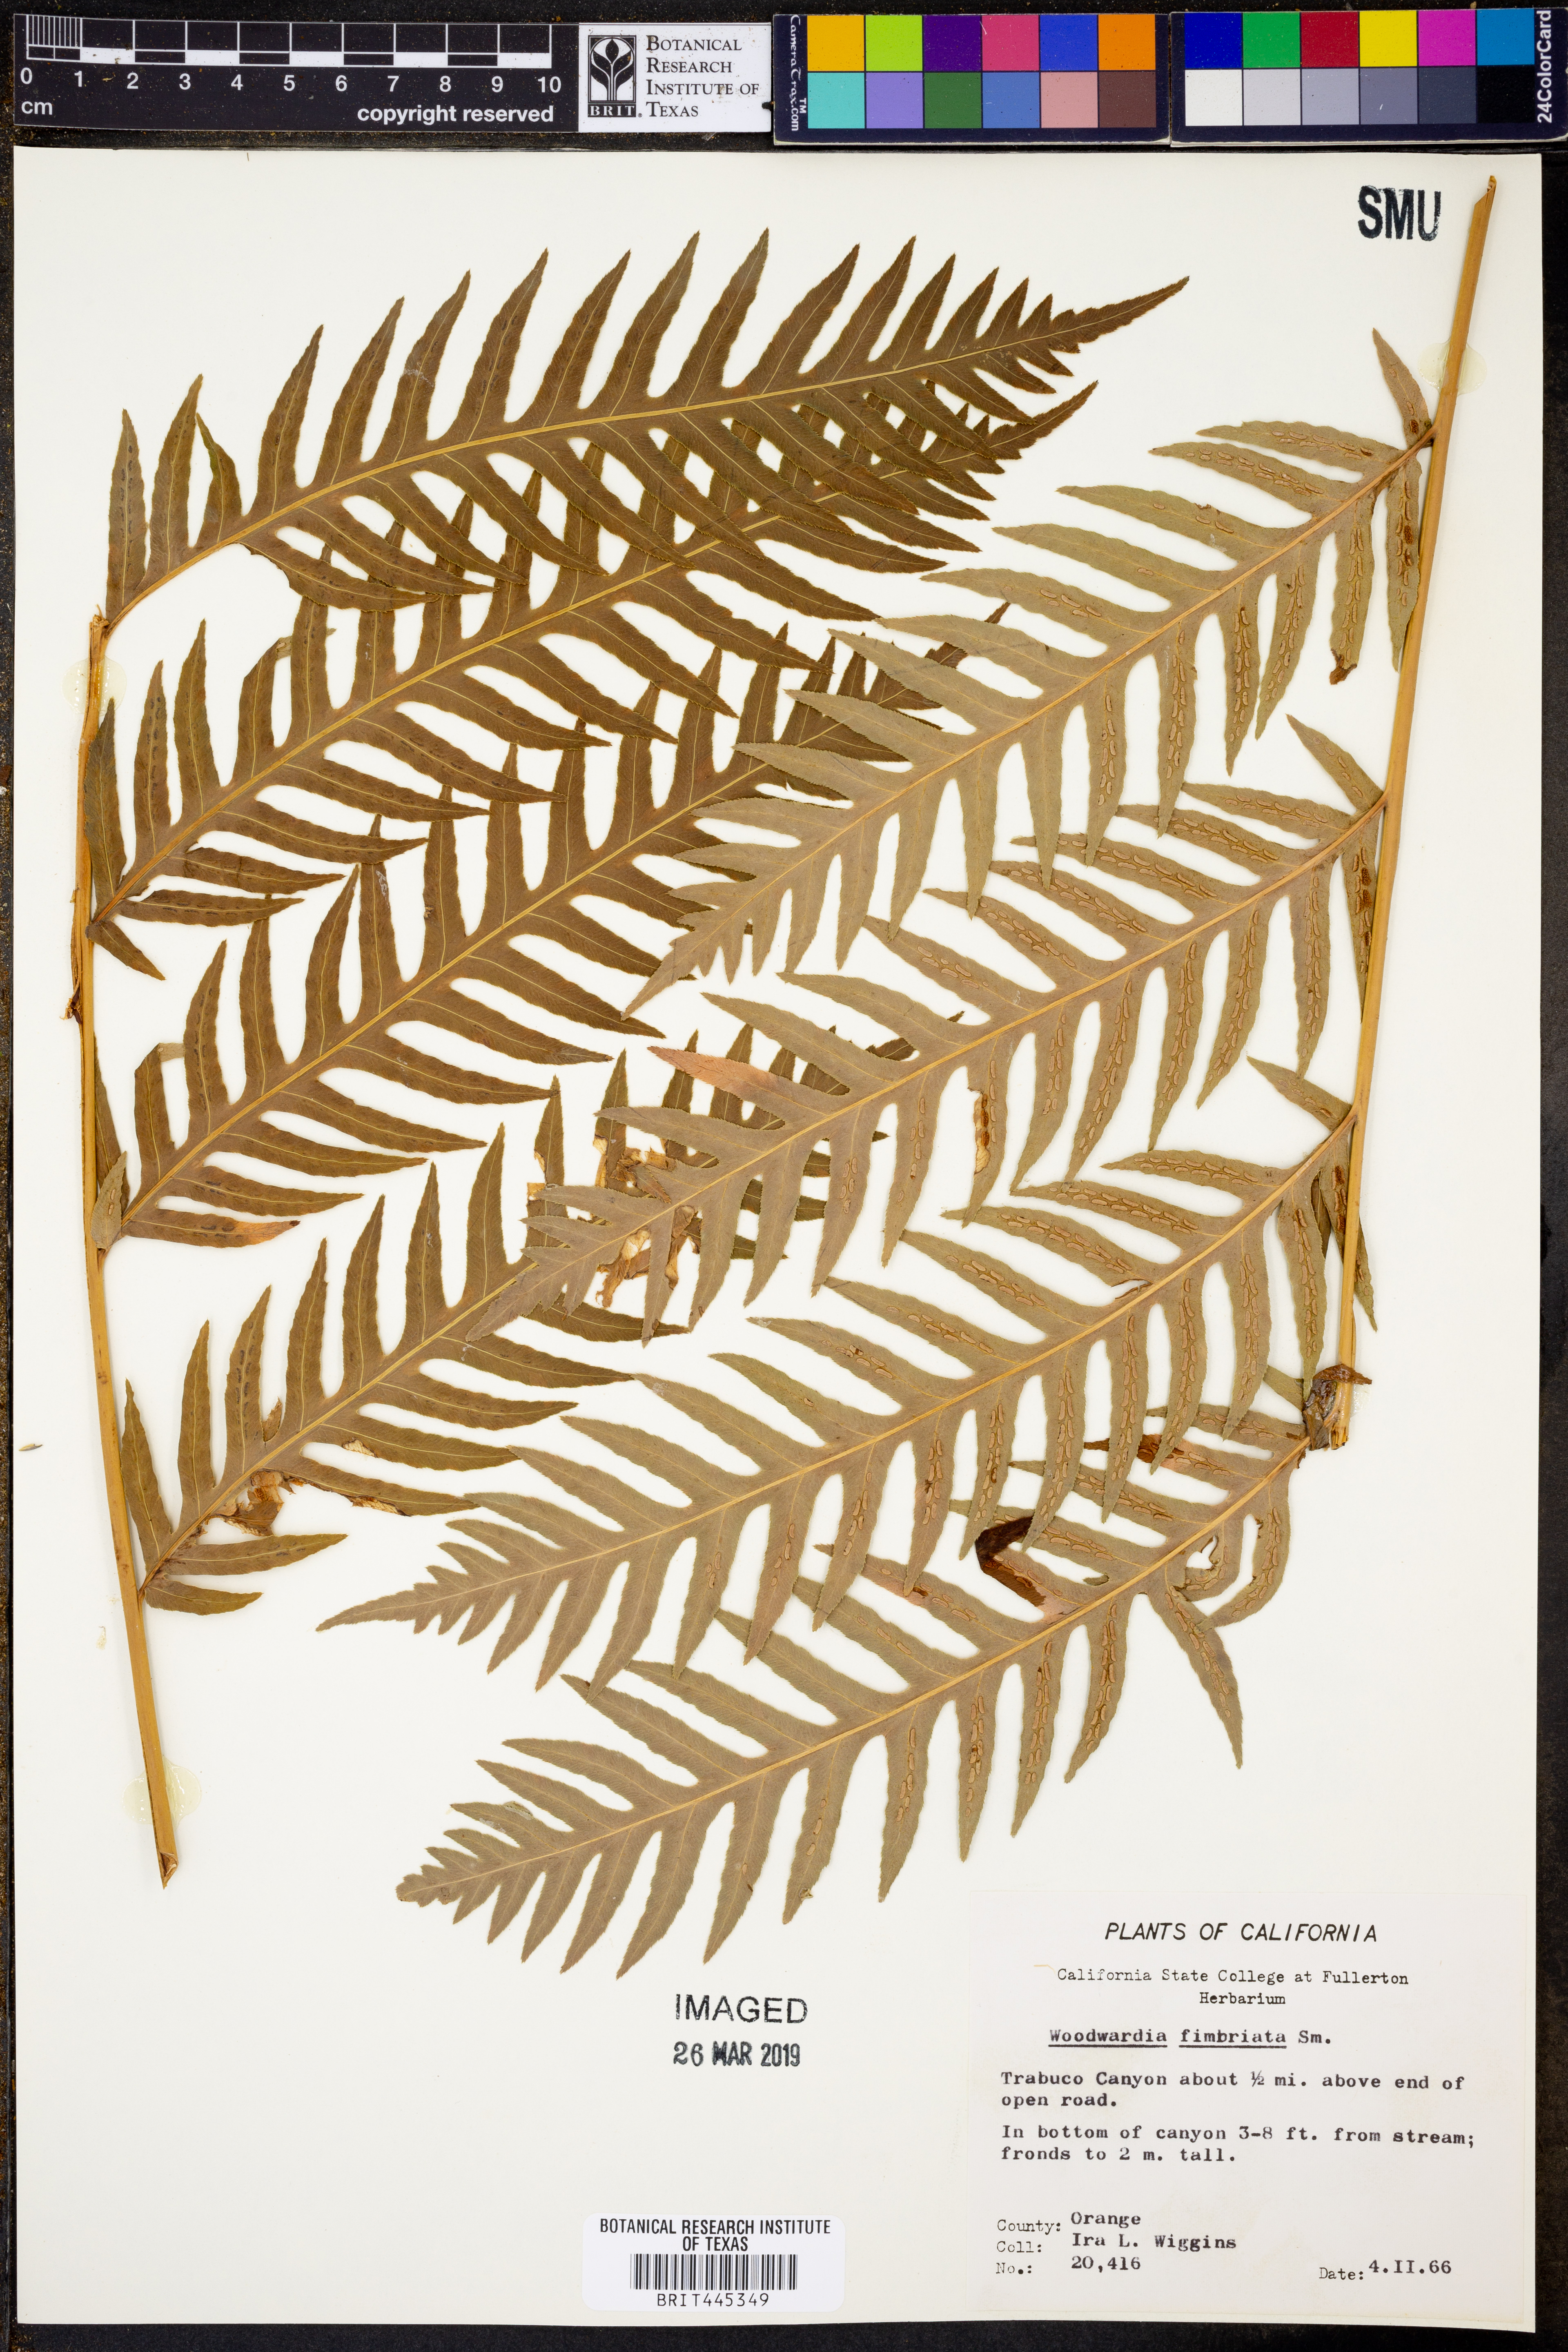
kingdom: Plantae
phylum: Tracheophyta
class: Polypodiopsida
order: Polypodiales
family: Blechnaceae
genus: Woodwardia
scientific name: Woodwardia fimbriata
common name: Giant chain fern
